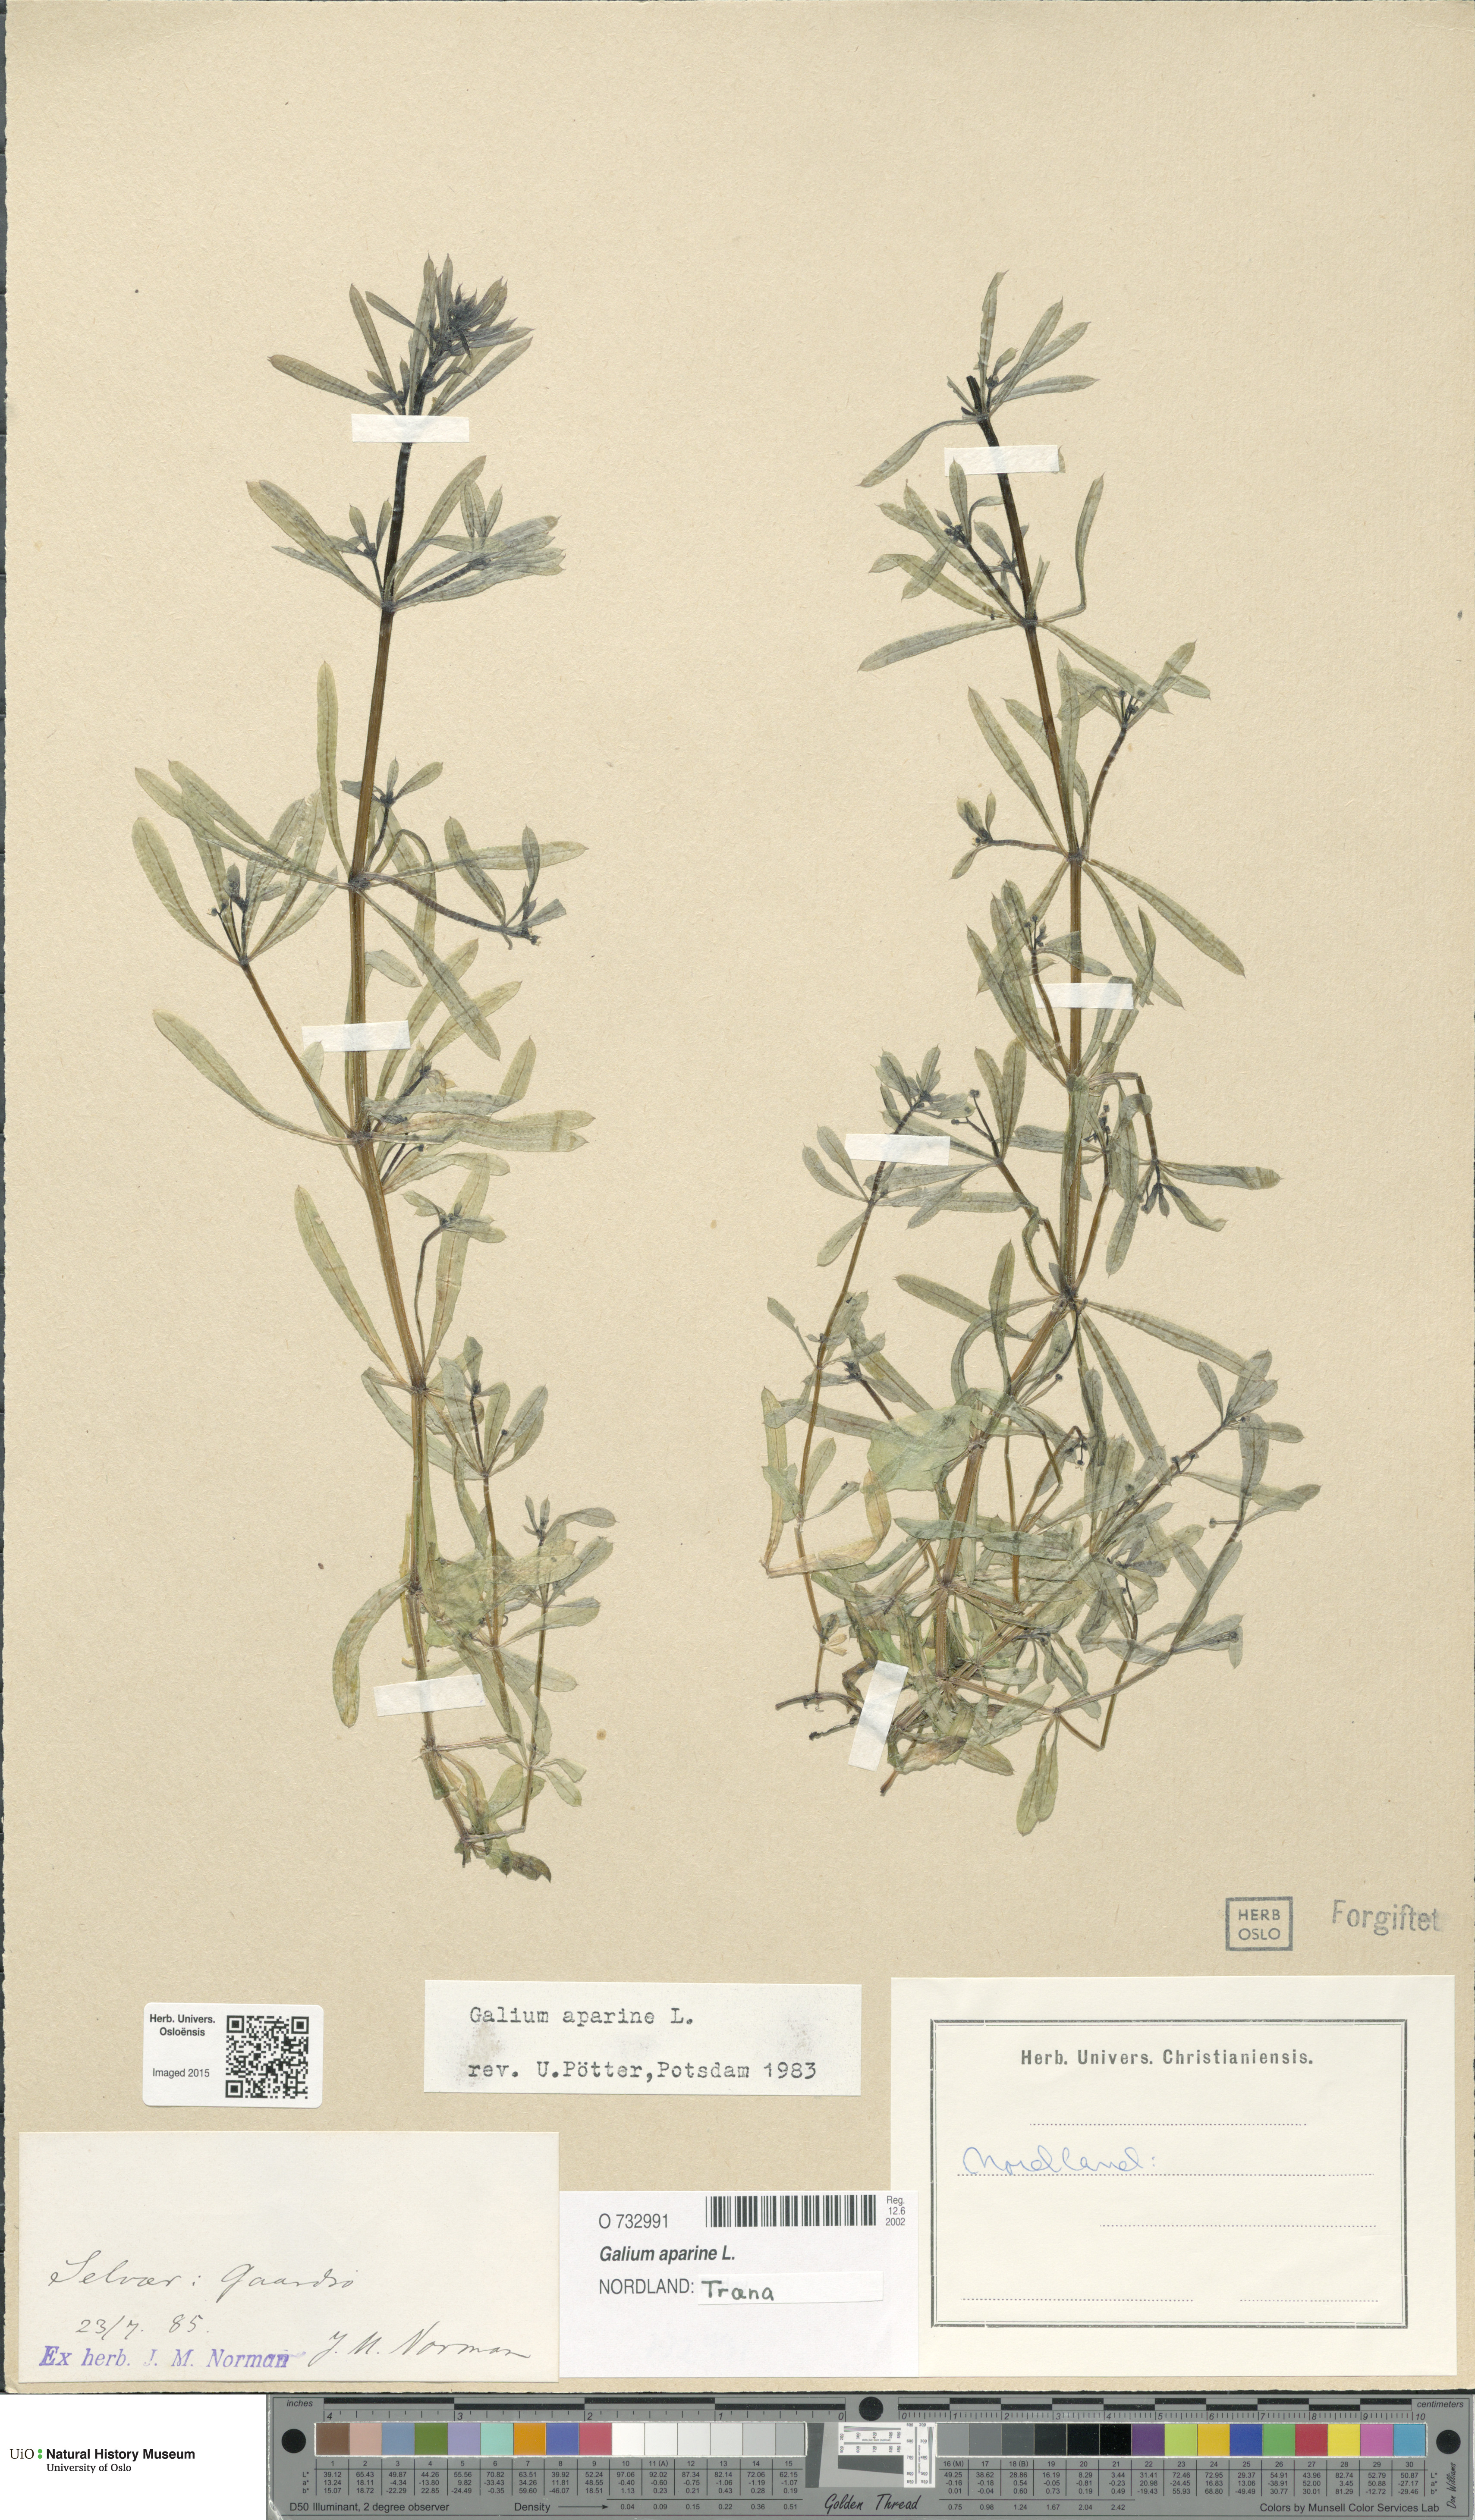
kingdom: Plantae
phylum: Tracheophyta
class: Magnoliopsida
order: Gentianales
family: Rubiaceae
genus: Galium
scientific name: Galium aparine
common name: Cleavers
